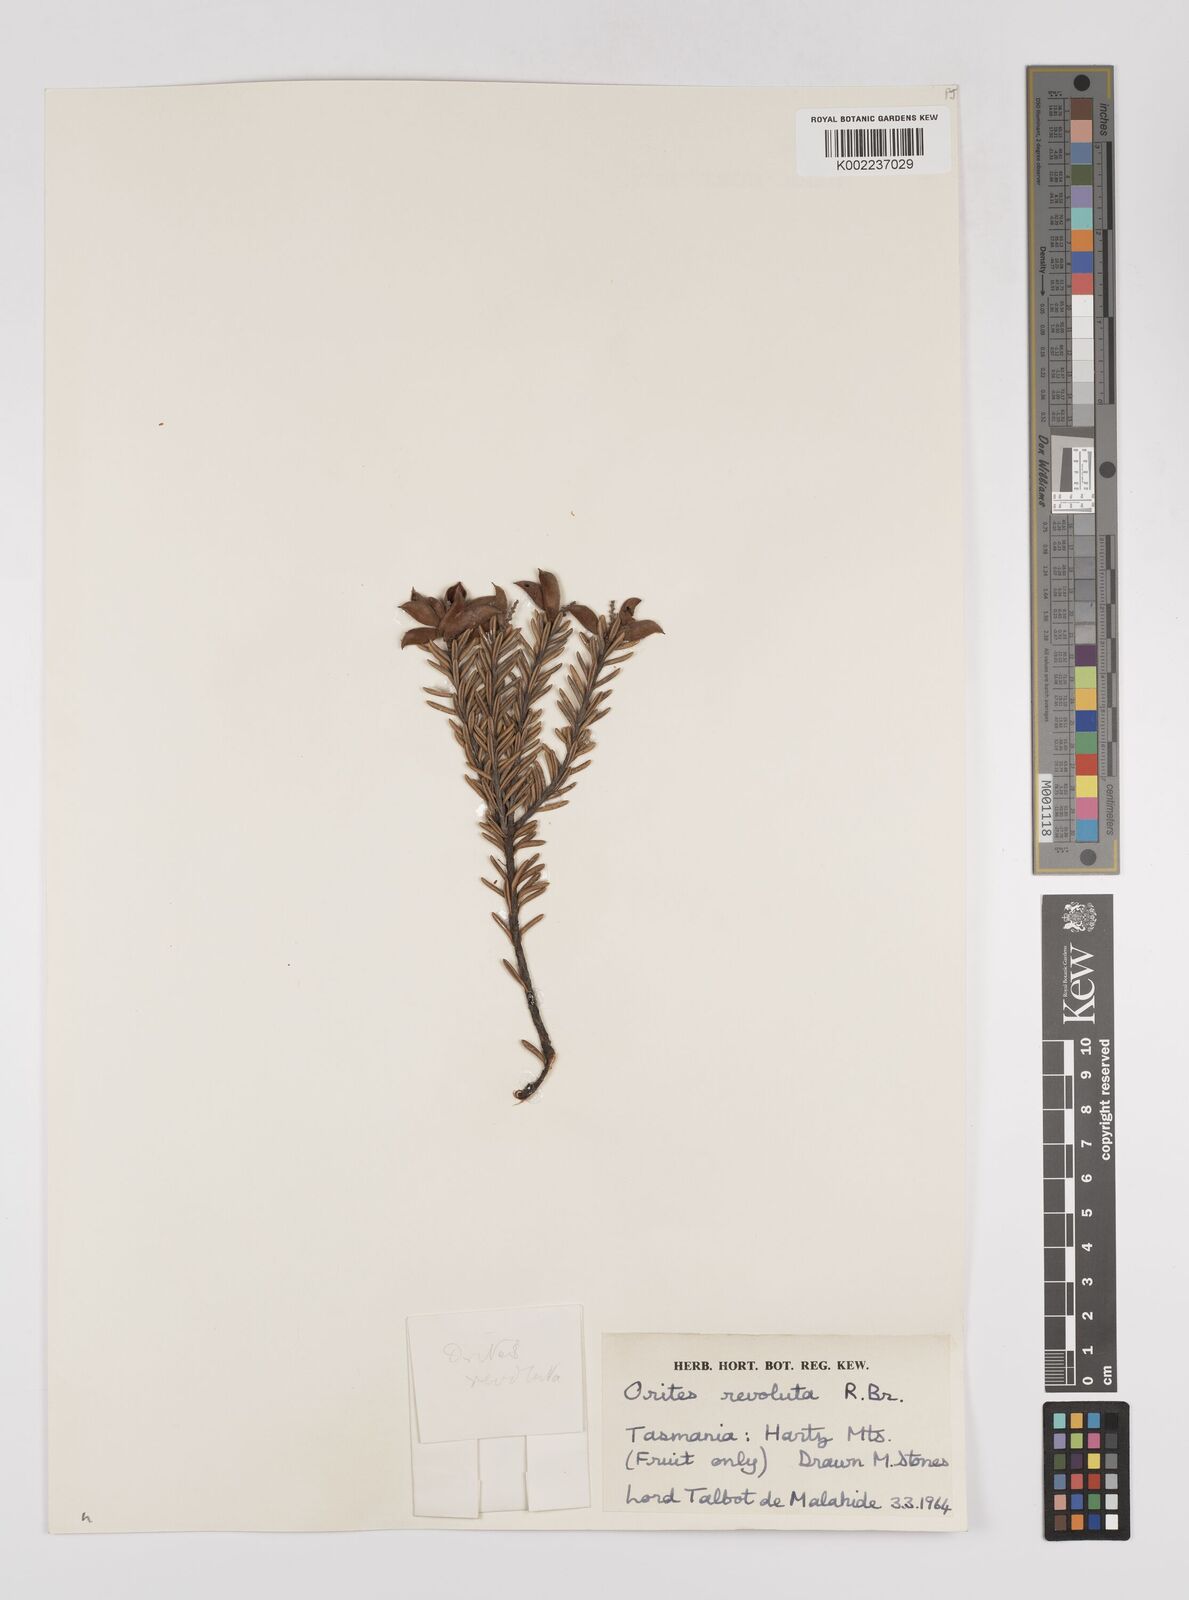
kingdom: Plantae
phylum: Tracheophyta
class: Magnoliopsida
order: Proteales
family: Proteaceae
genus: Orites
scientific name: Orites revolutus
